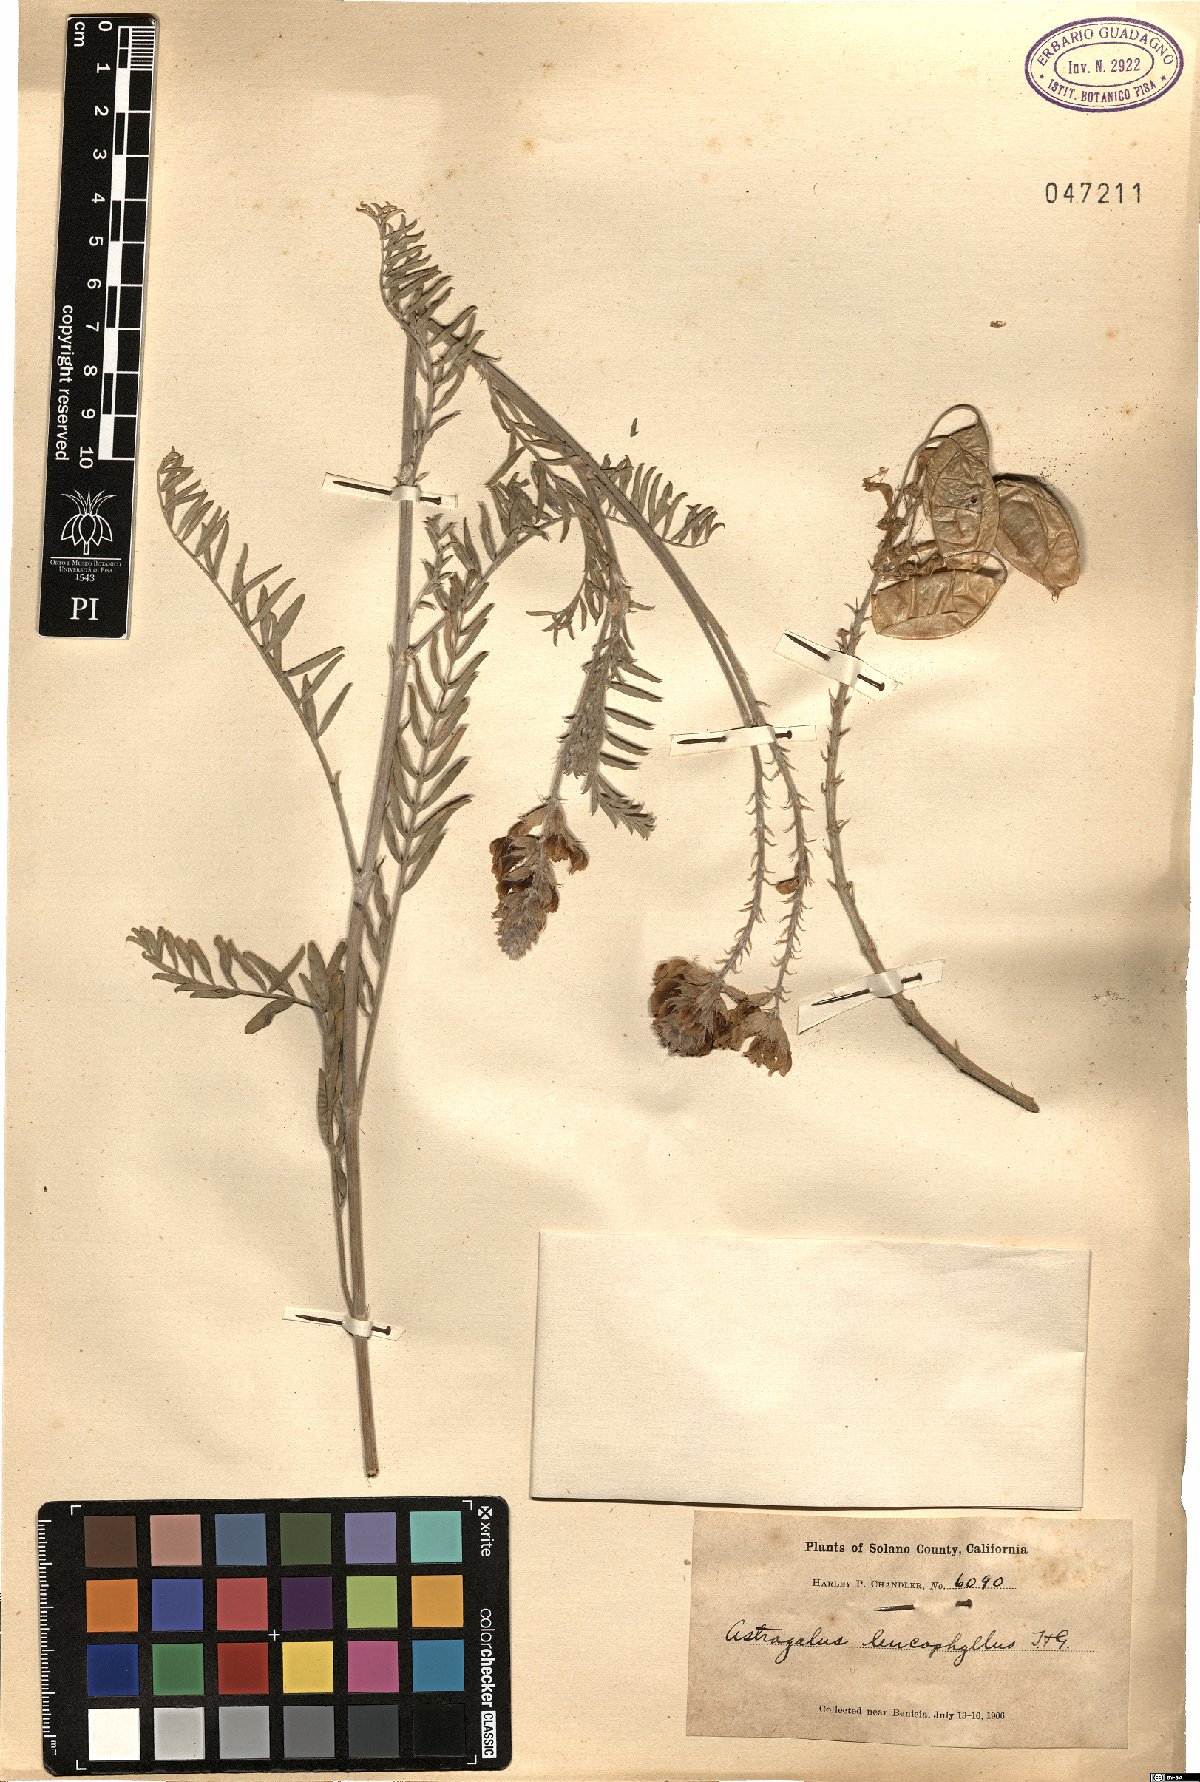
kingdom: Plantae
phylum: Tracheophyta
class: Magnoliopsida
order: Fabales
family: Fabaceae
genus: Astragalus
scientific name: Astragalus angustifolius
